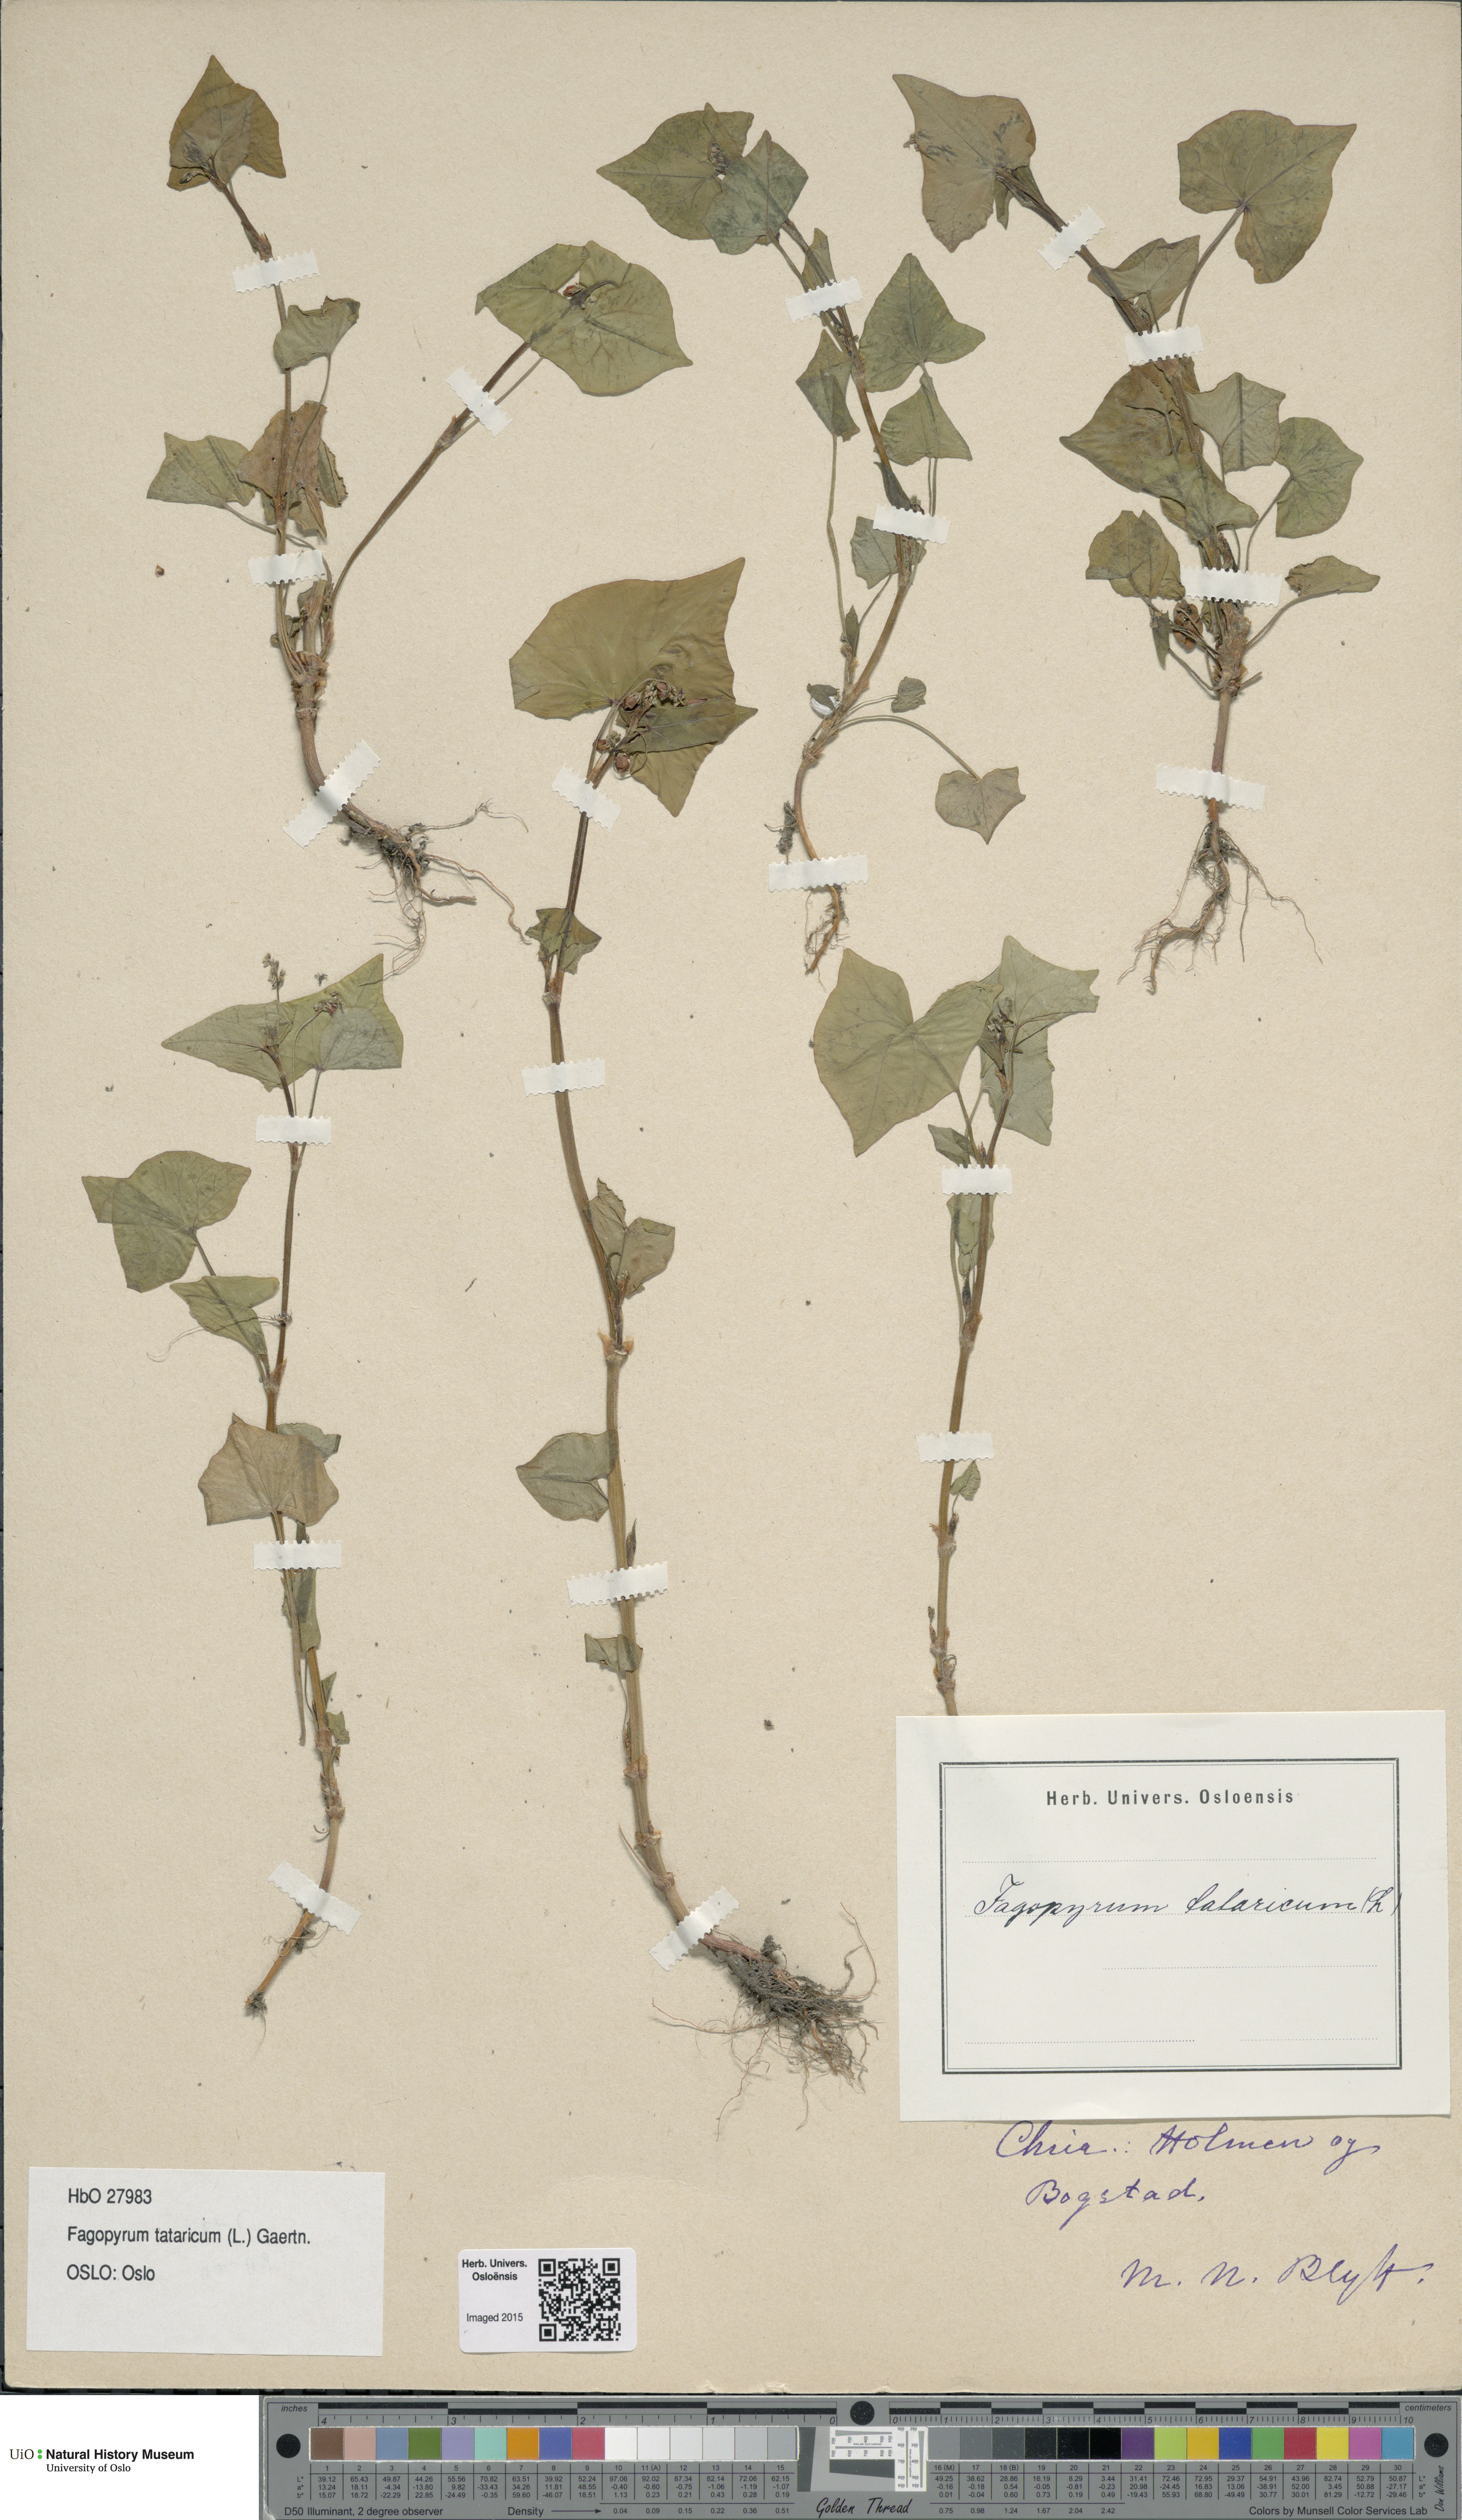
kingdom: Plantae
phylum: Tracheophyta
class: Magnoliopsida
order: Caryophyllales
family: Polygonaceae
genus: Fagopyrum
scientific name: Fagopyrum tataricum
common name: Green buckwheat
